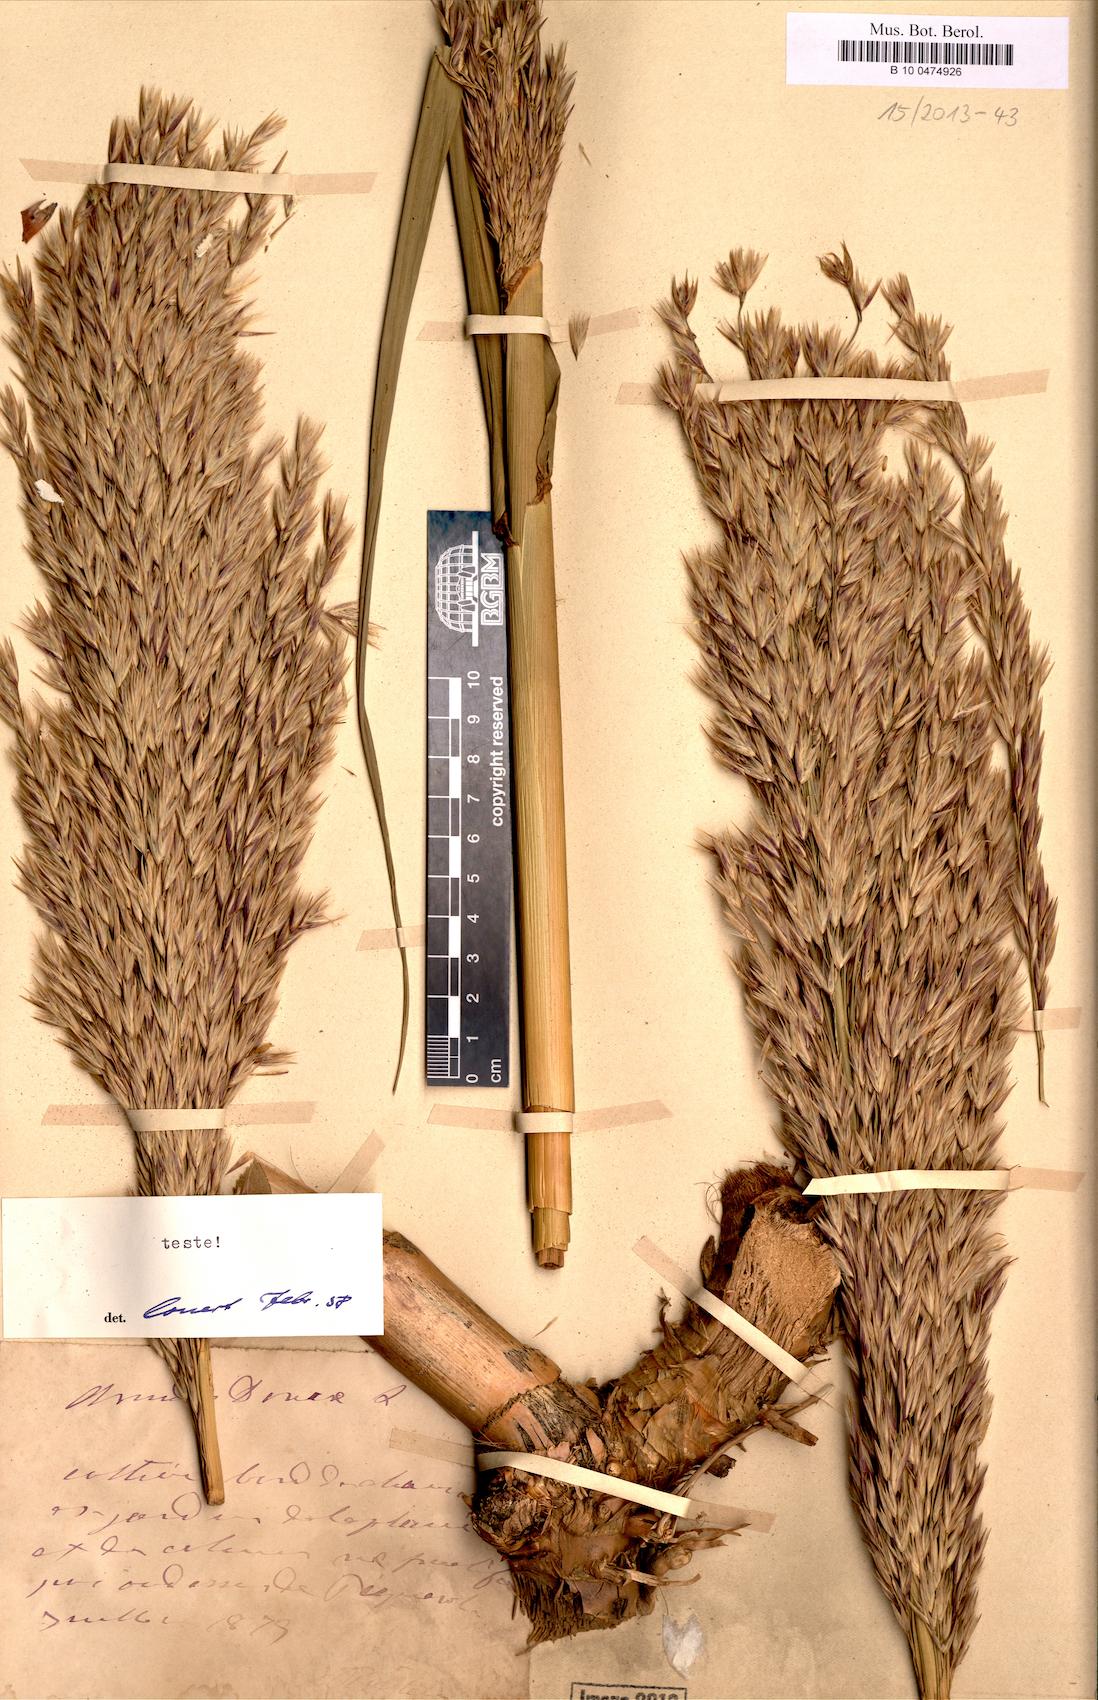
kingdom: Plantae
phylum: Tracheophyta
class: Liliopsida
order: Poales
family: Poaceae
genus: Arundo
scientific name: Arundo donax
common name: Giant reed
